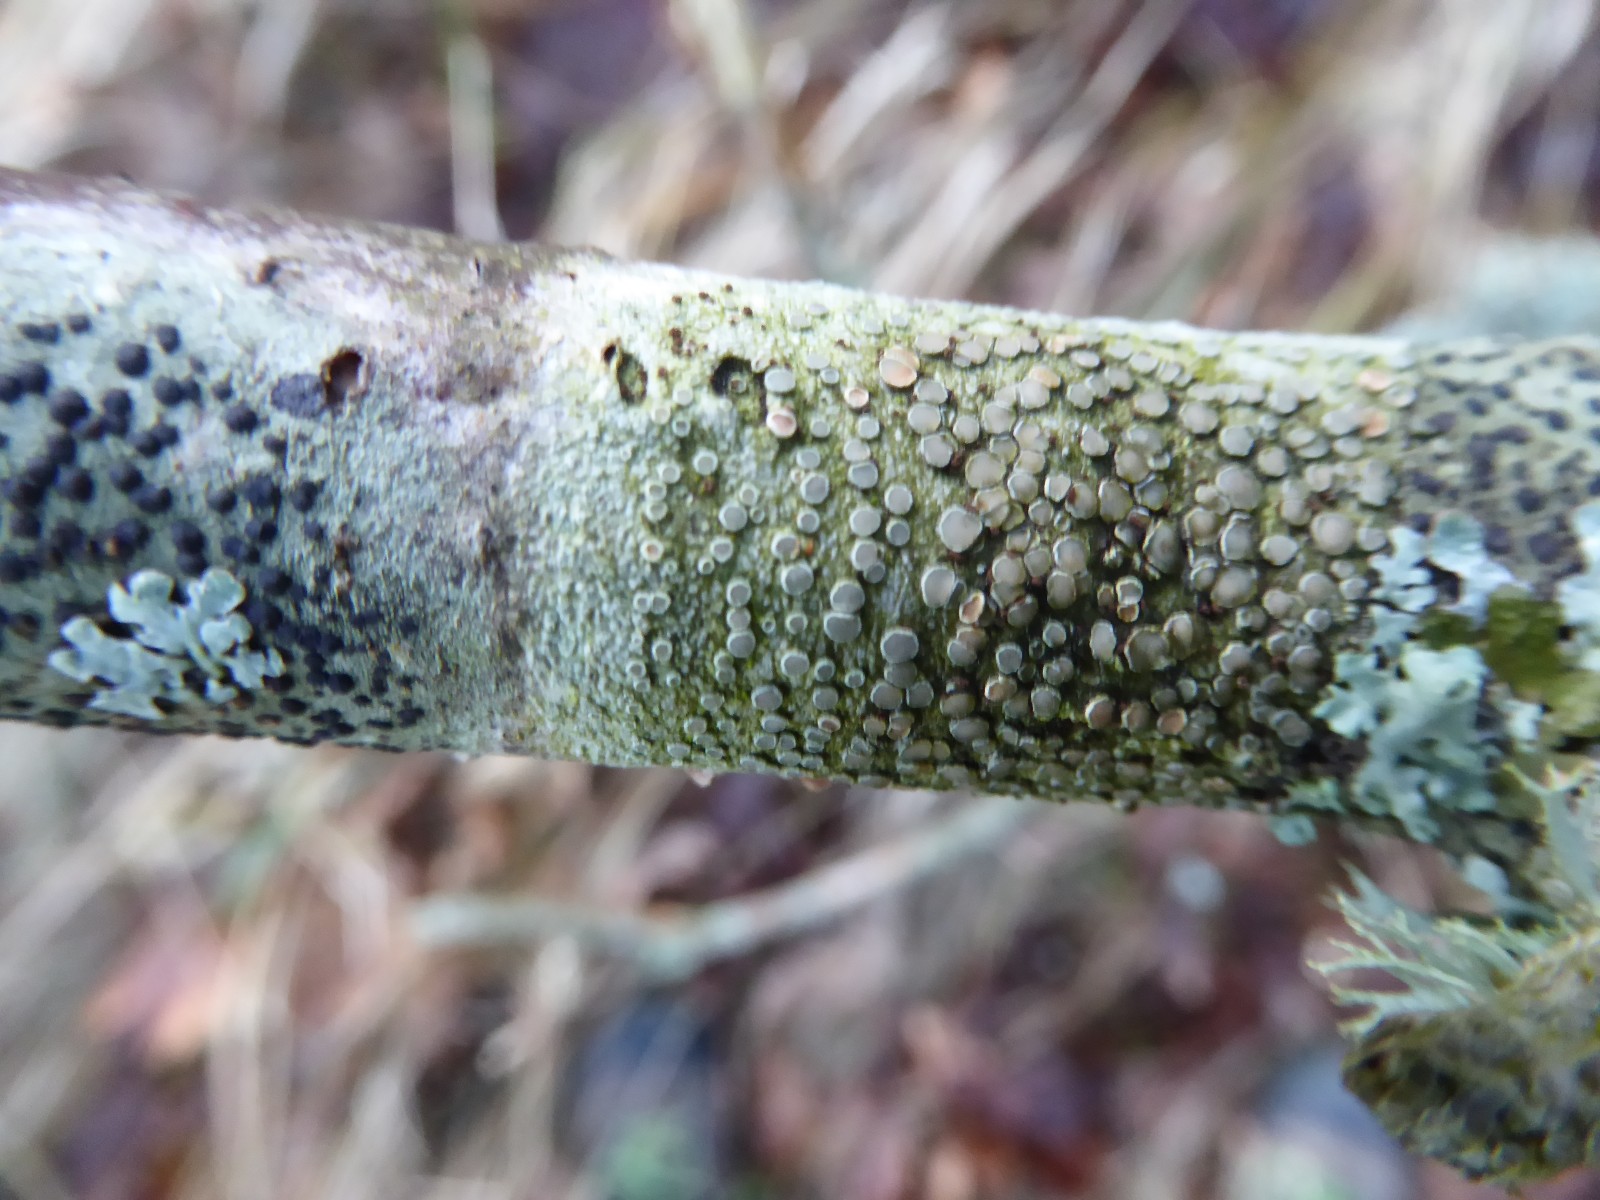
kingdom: Fungi
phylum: Ascomycota
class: Lecanoromycetes
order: Lecanorales
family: Lecanoraceae
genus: Lecanora
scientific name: Lecanora chlarotera
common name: brun kantskivelav
